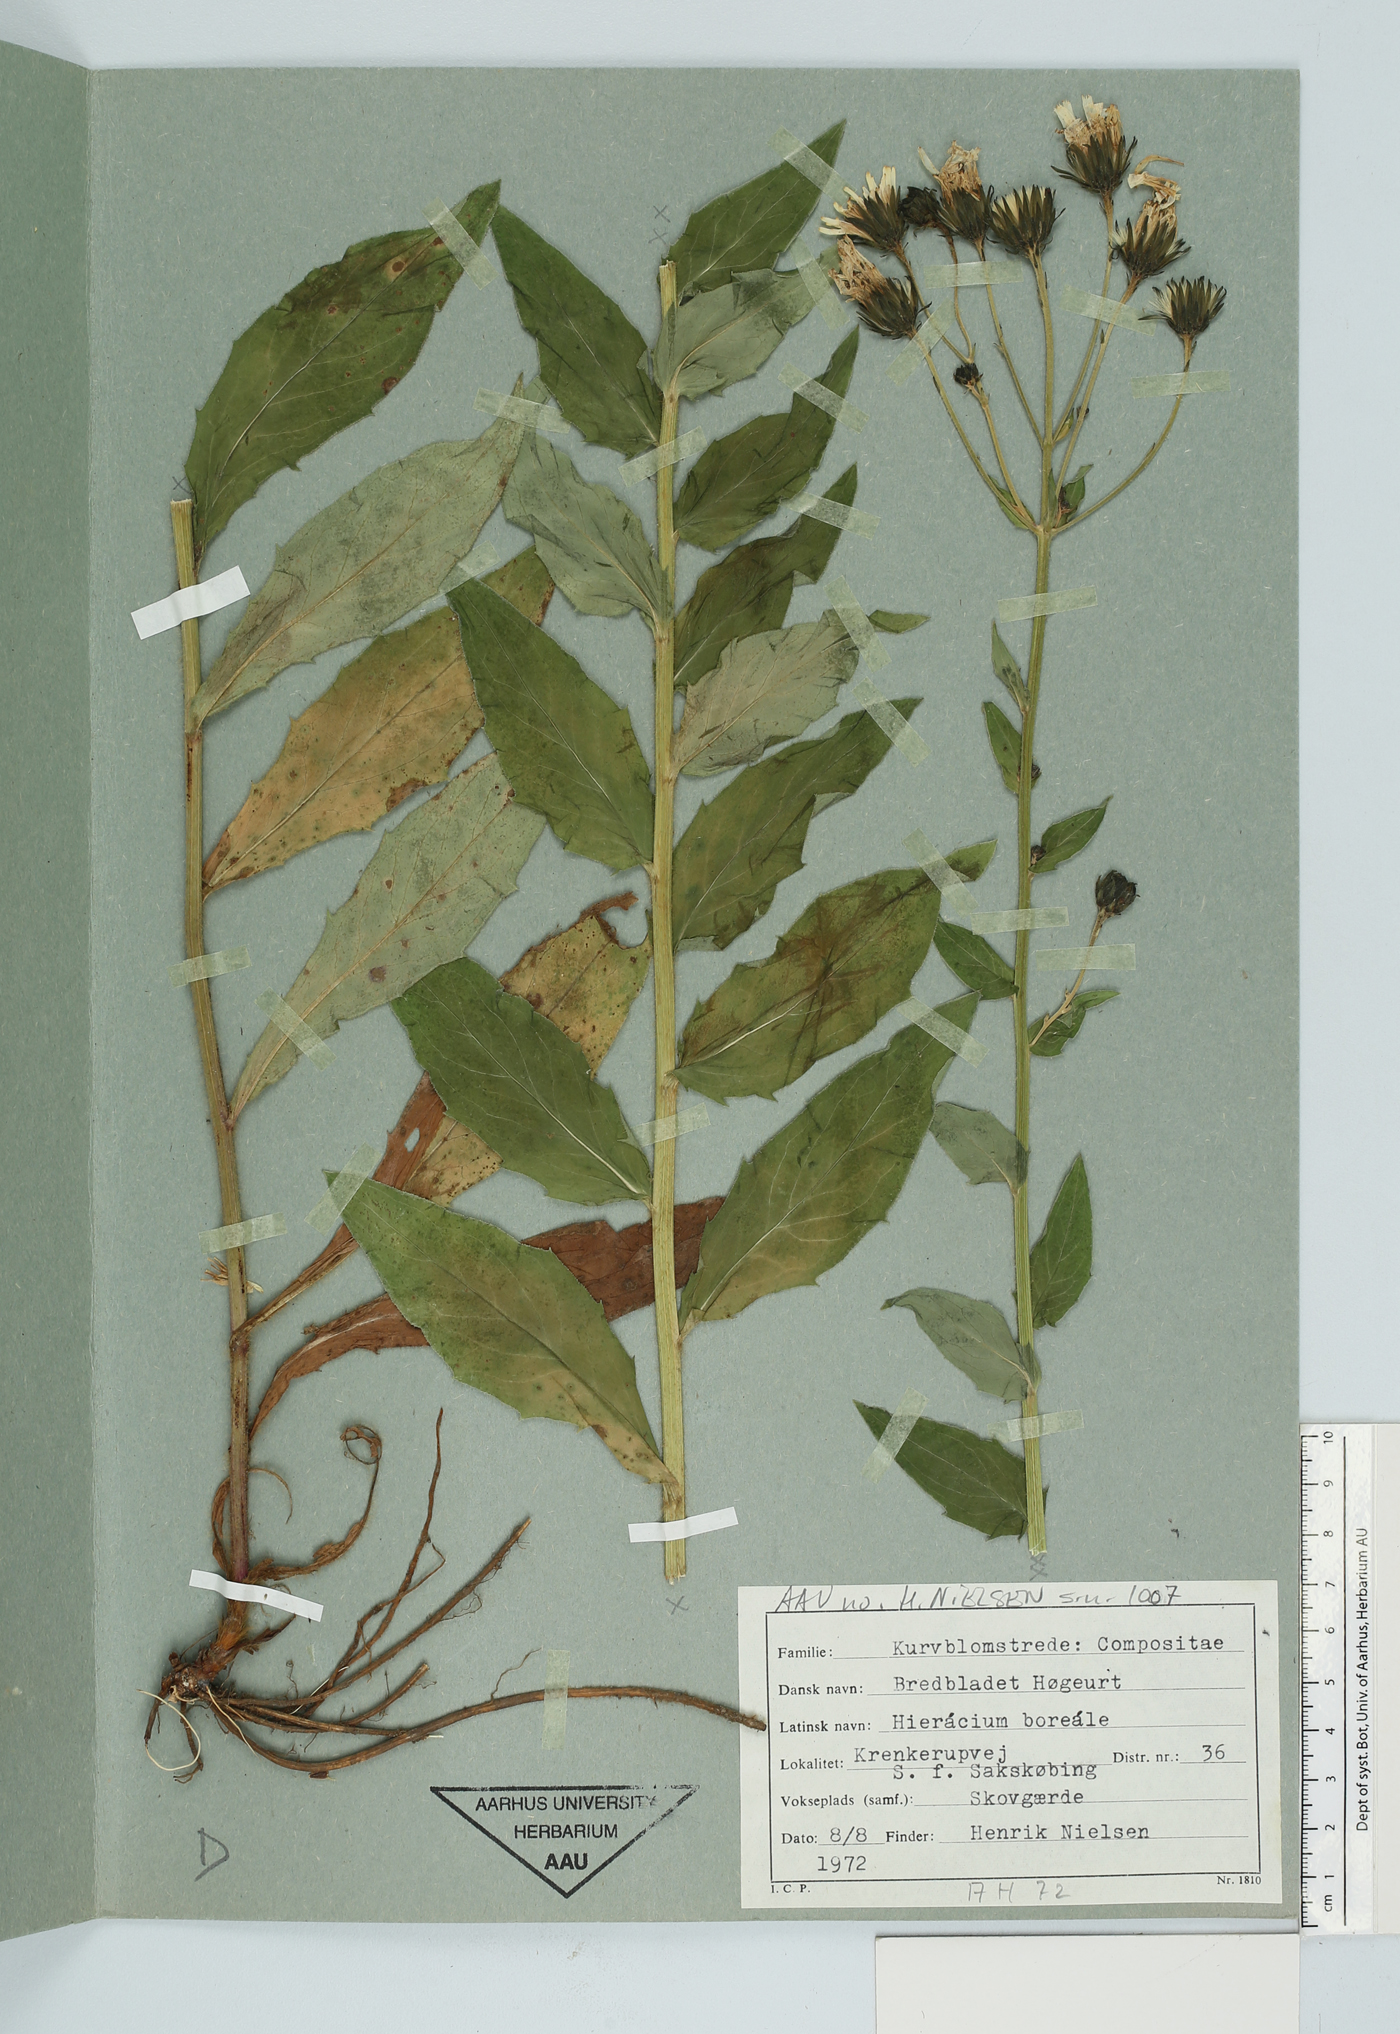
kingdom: Plantae
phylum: Tracheophyta
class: Magnoliopsida
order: Asterales
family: Asteraceae
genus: Hieracium
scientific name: Hieracium boreale
